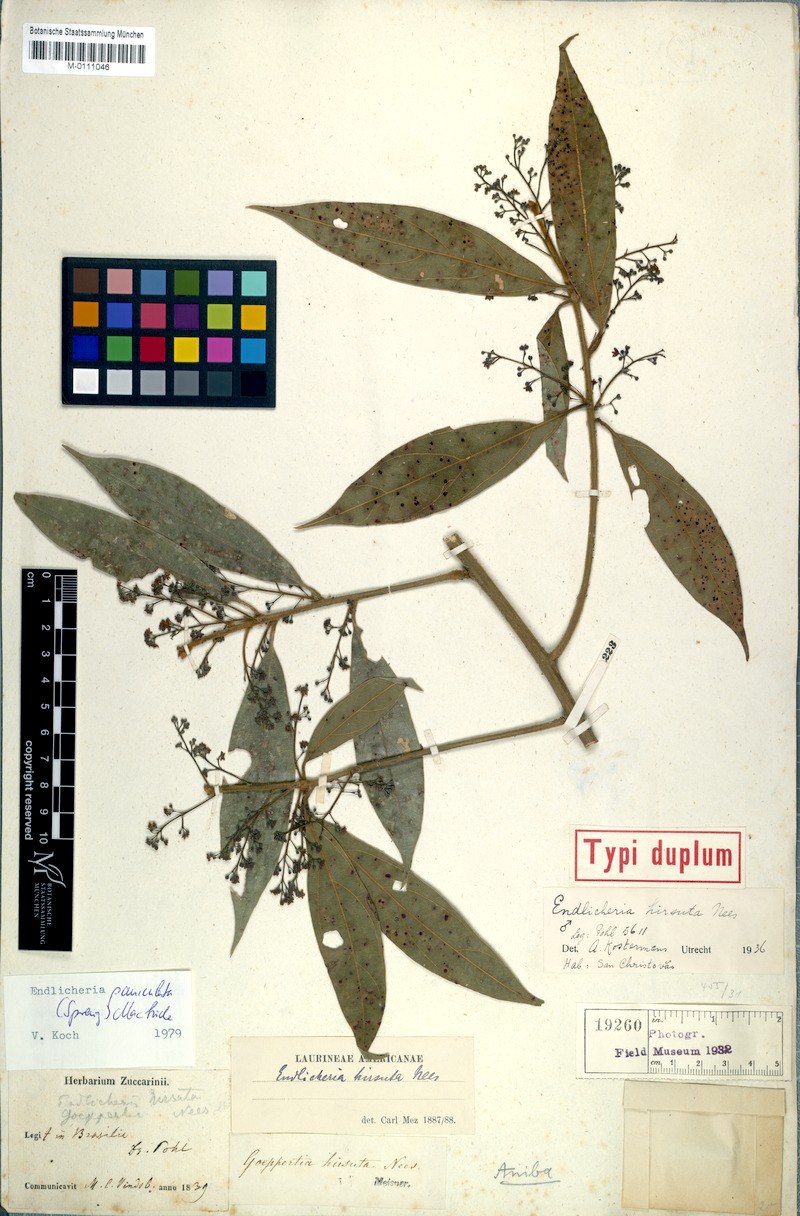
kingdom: Plantae
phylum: Tracheophyta
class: Magnoliopsida
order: Laurales
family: Lauraceae
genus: Endlicheria
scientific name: Endlicheria paniculata
